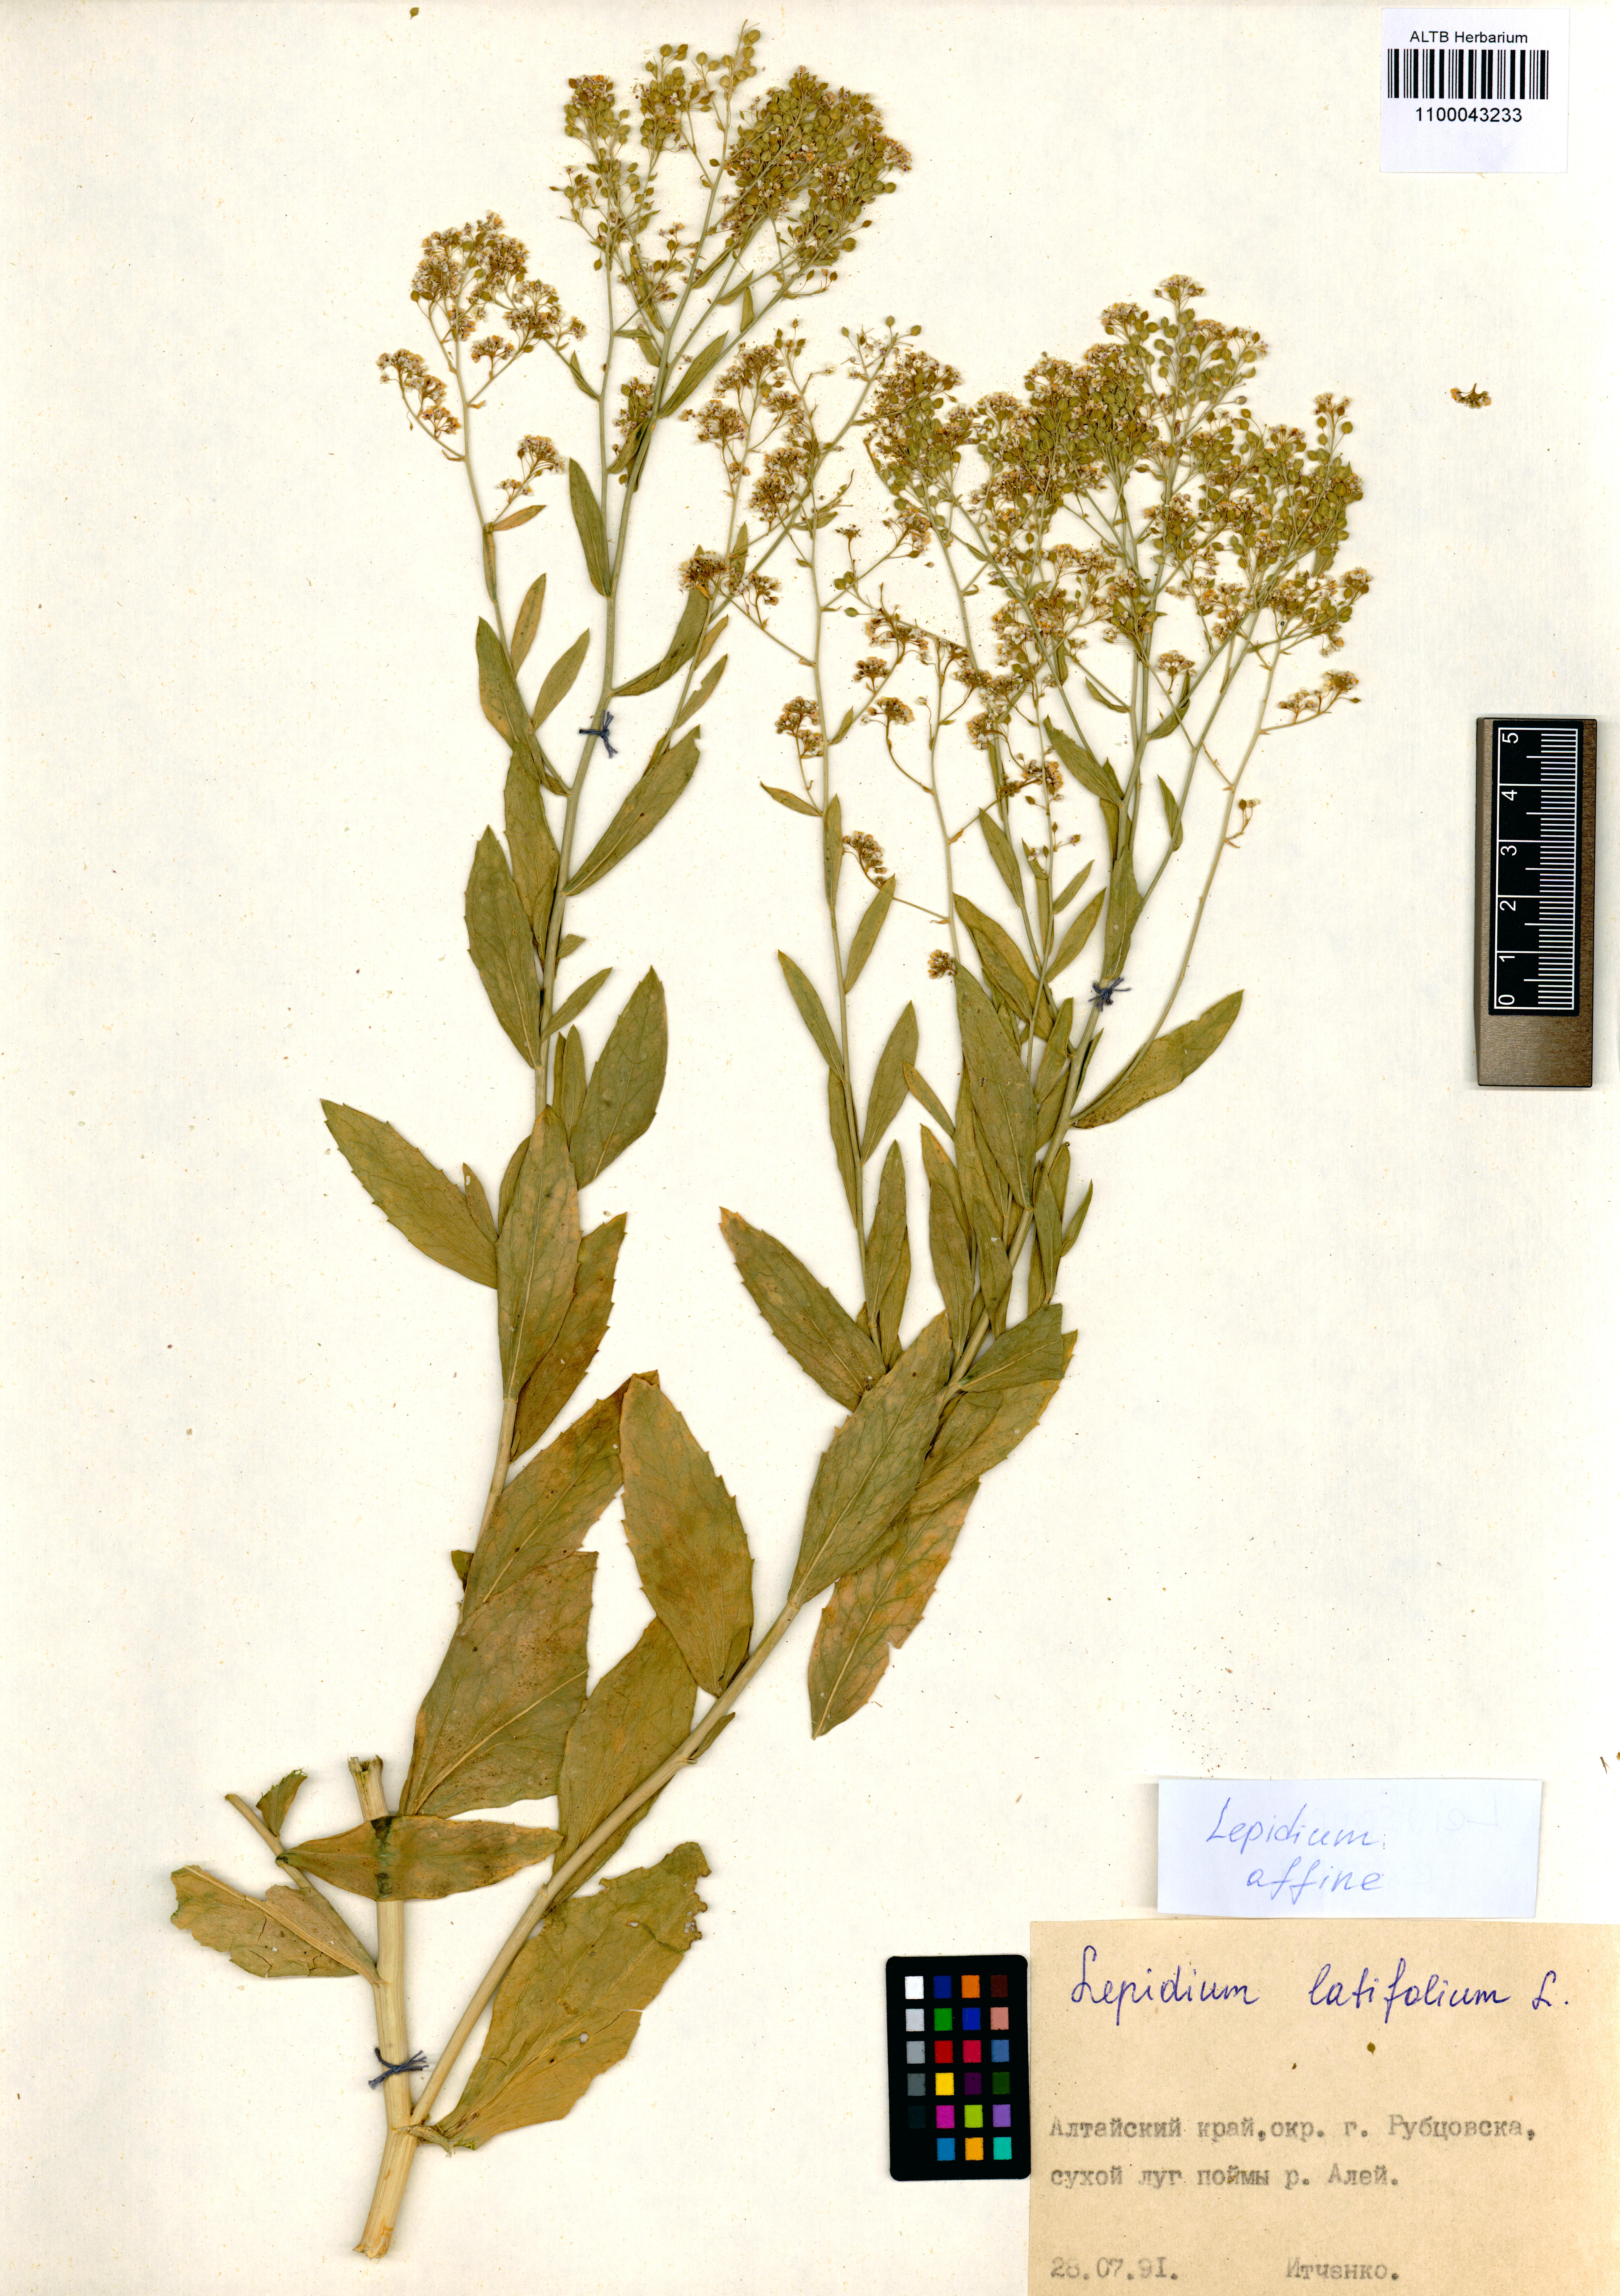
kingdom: Plantae
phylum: Tracheophyta
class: Magnoliopsida
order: Brassicales
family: Brassicaceae
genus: Lepidium
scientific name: Lepidium latifolium
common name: Dittander
